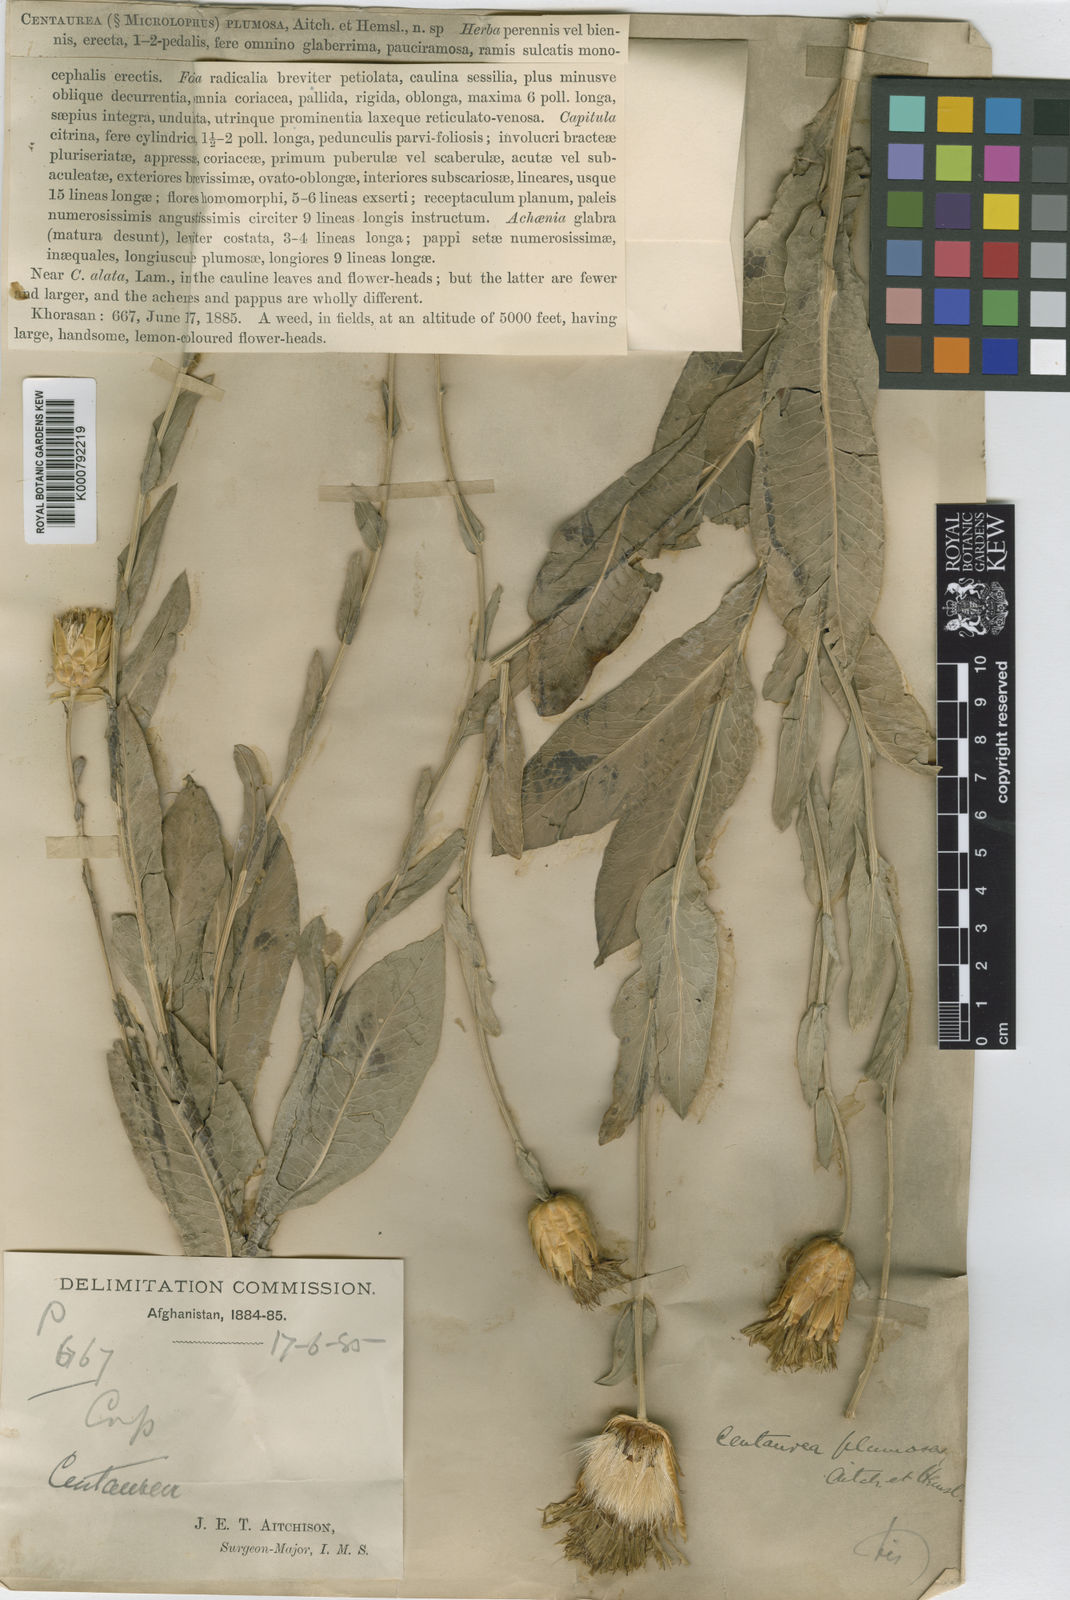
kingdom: Plantae
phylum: Tracheophyta
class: Magnoliopsida
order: Asterales
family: Asteraceae
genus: Klasea
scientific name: Klasea latifolia
